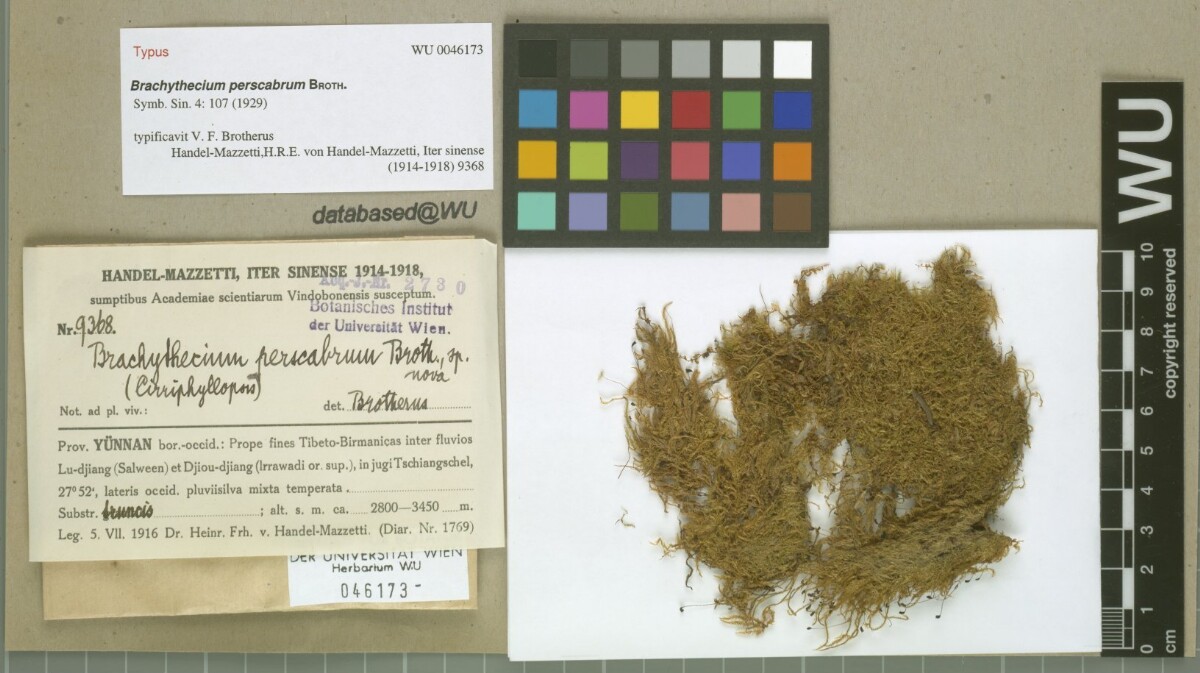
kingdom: Plantae
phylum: Bryophyta
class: Bryopsida
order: Hypnales
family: Brachytheciaceae
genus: Brachythecium
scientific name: Brachythecium perscabrum
